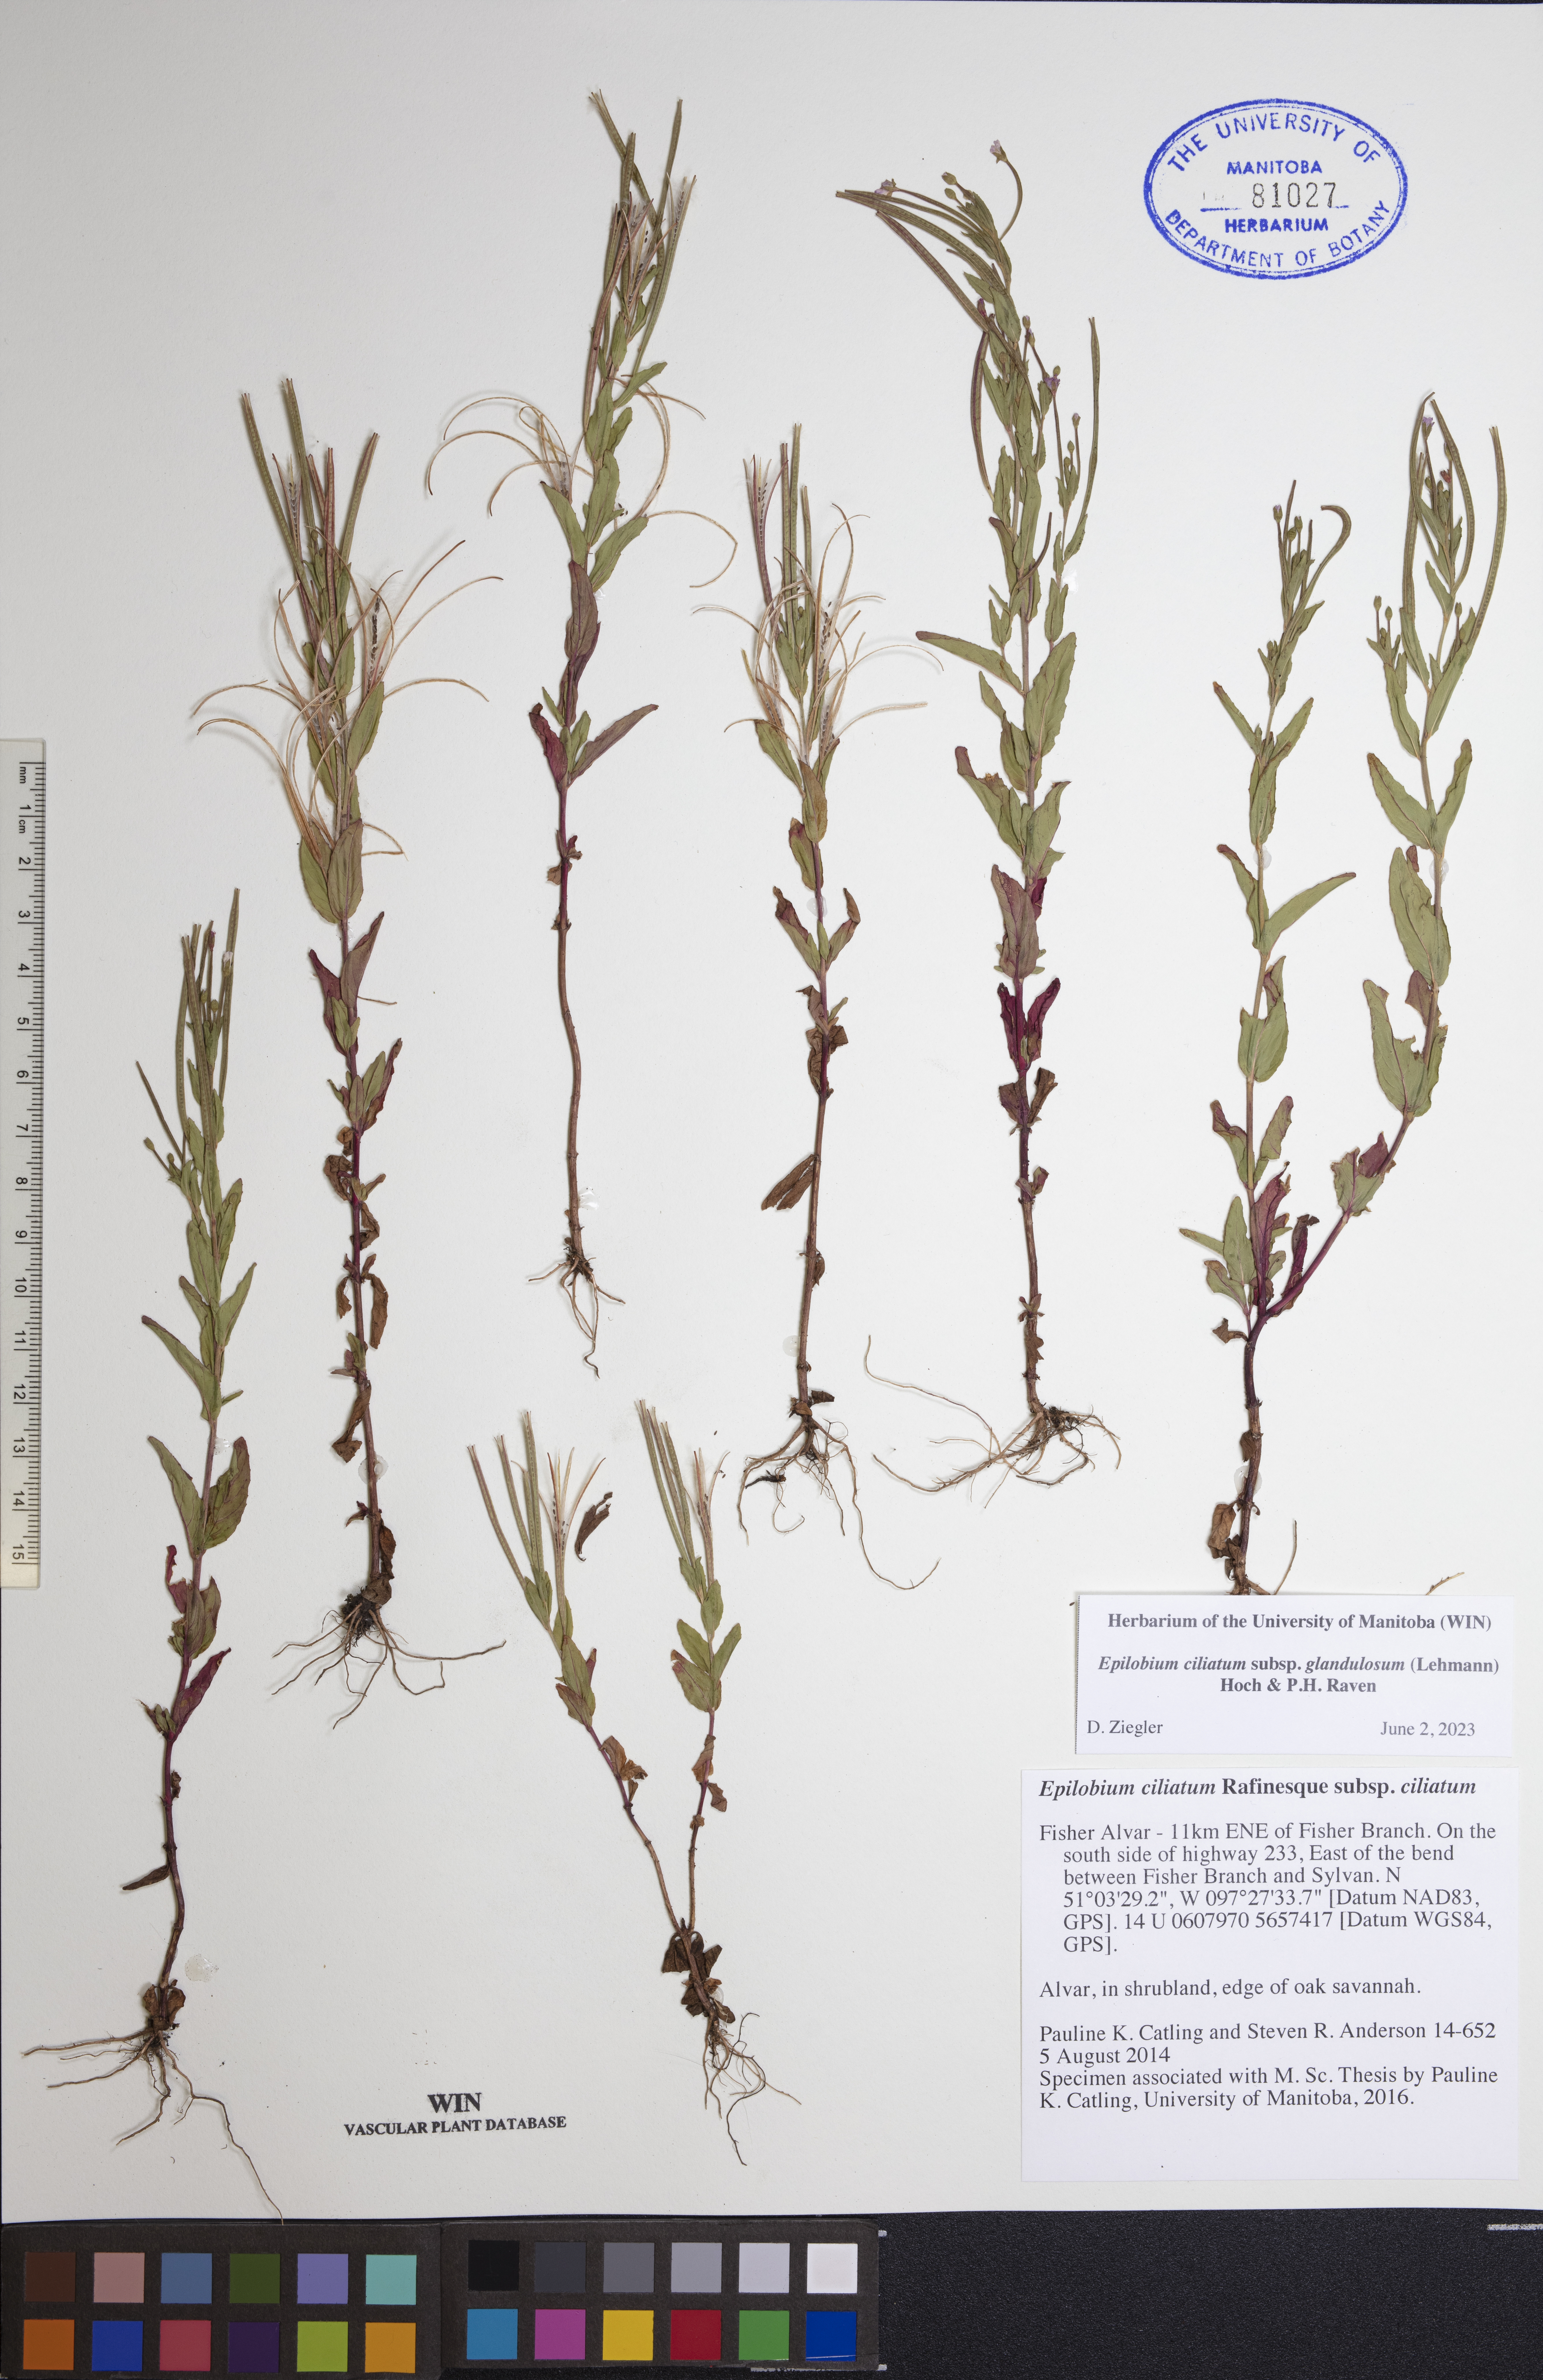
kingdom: Plantae
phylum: Tracheophyta
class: Magnoliopsida
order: Myrtales
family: Onagraceae
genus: Epilobium
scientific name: Epilobium ciliatum
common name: American willowherb
